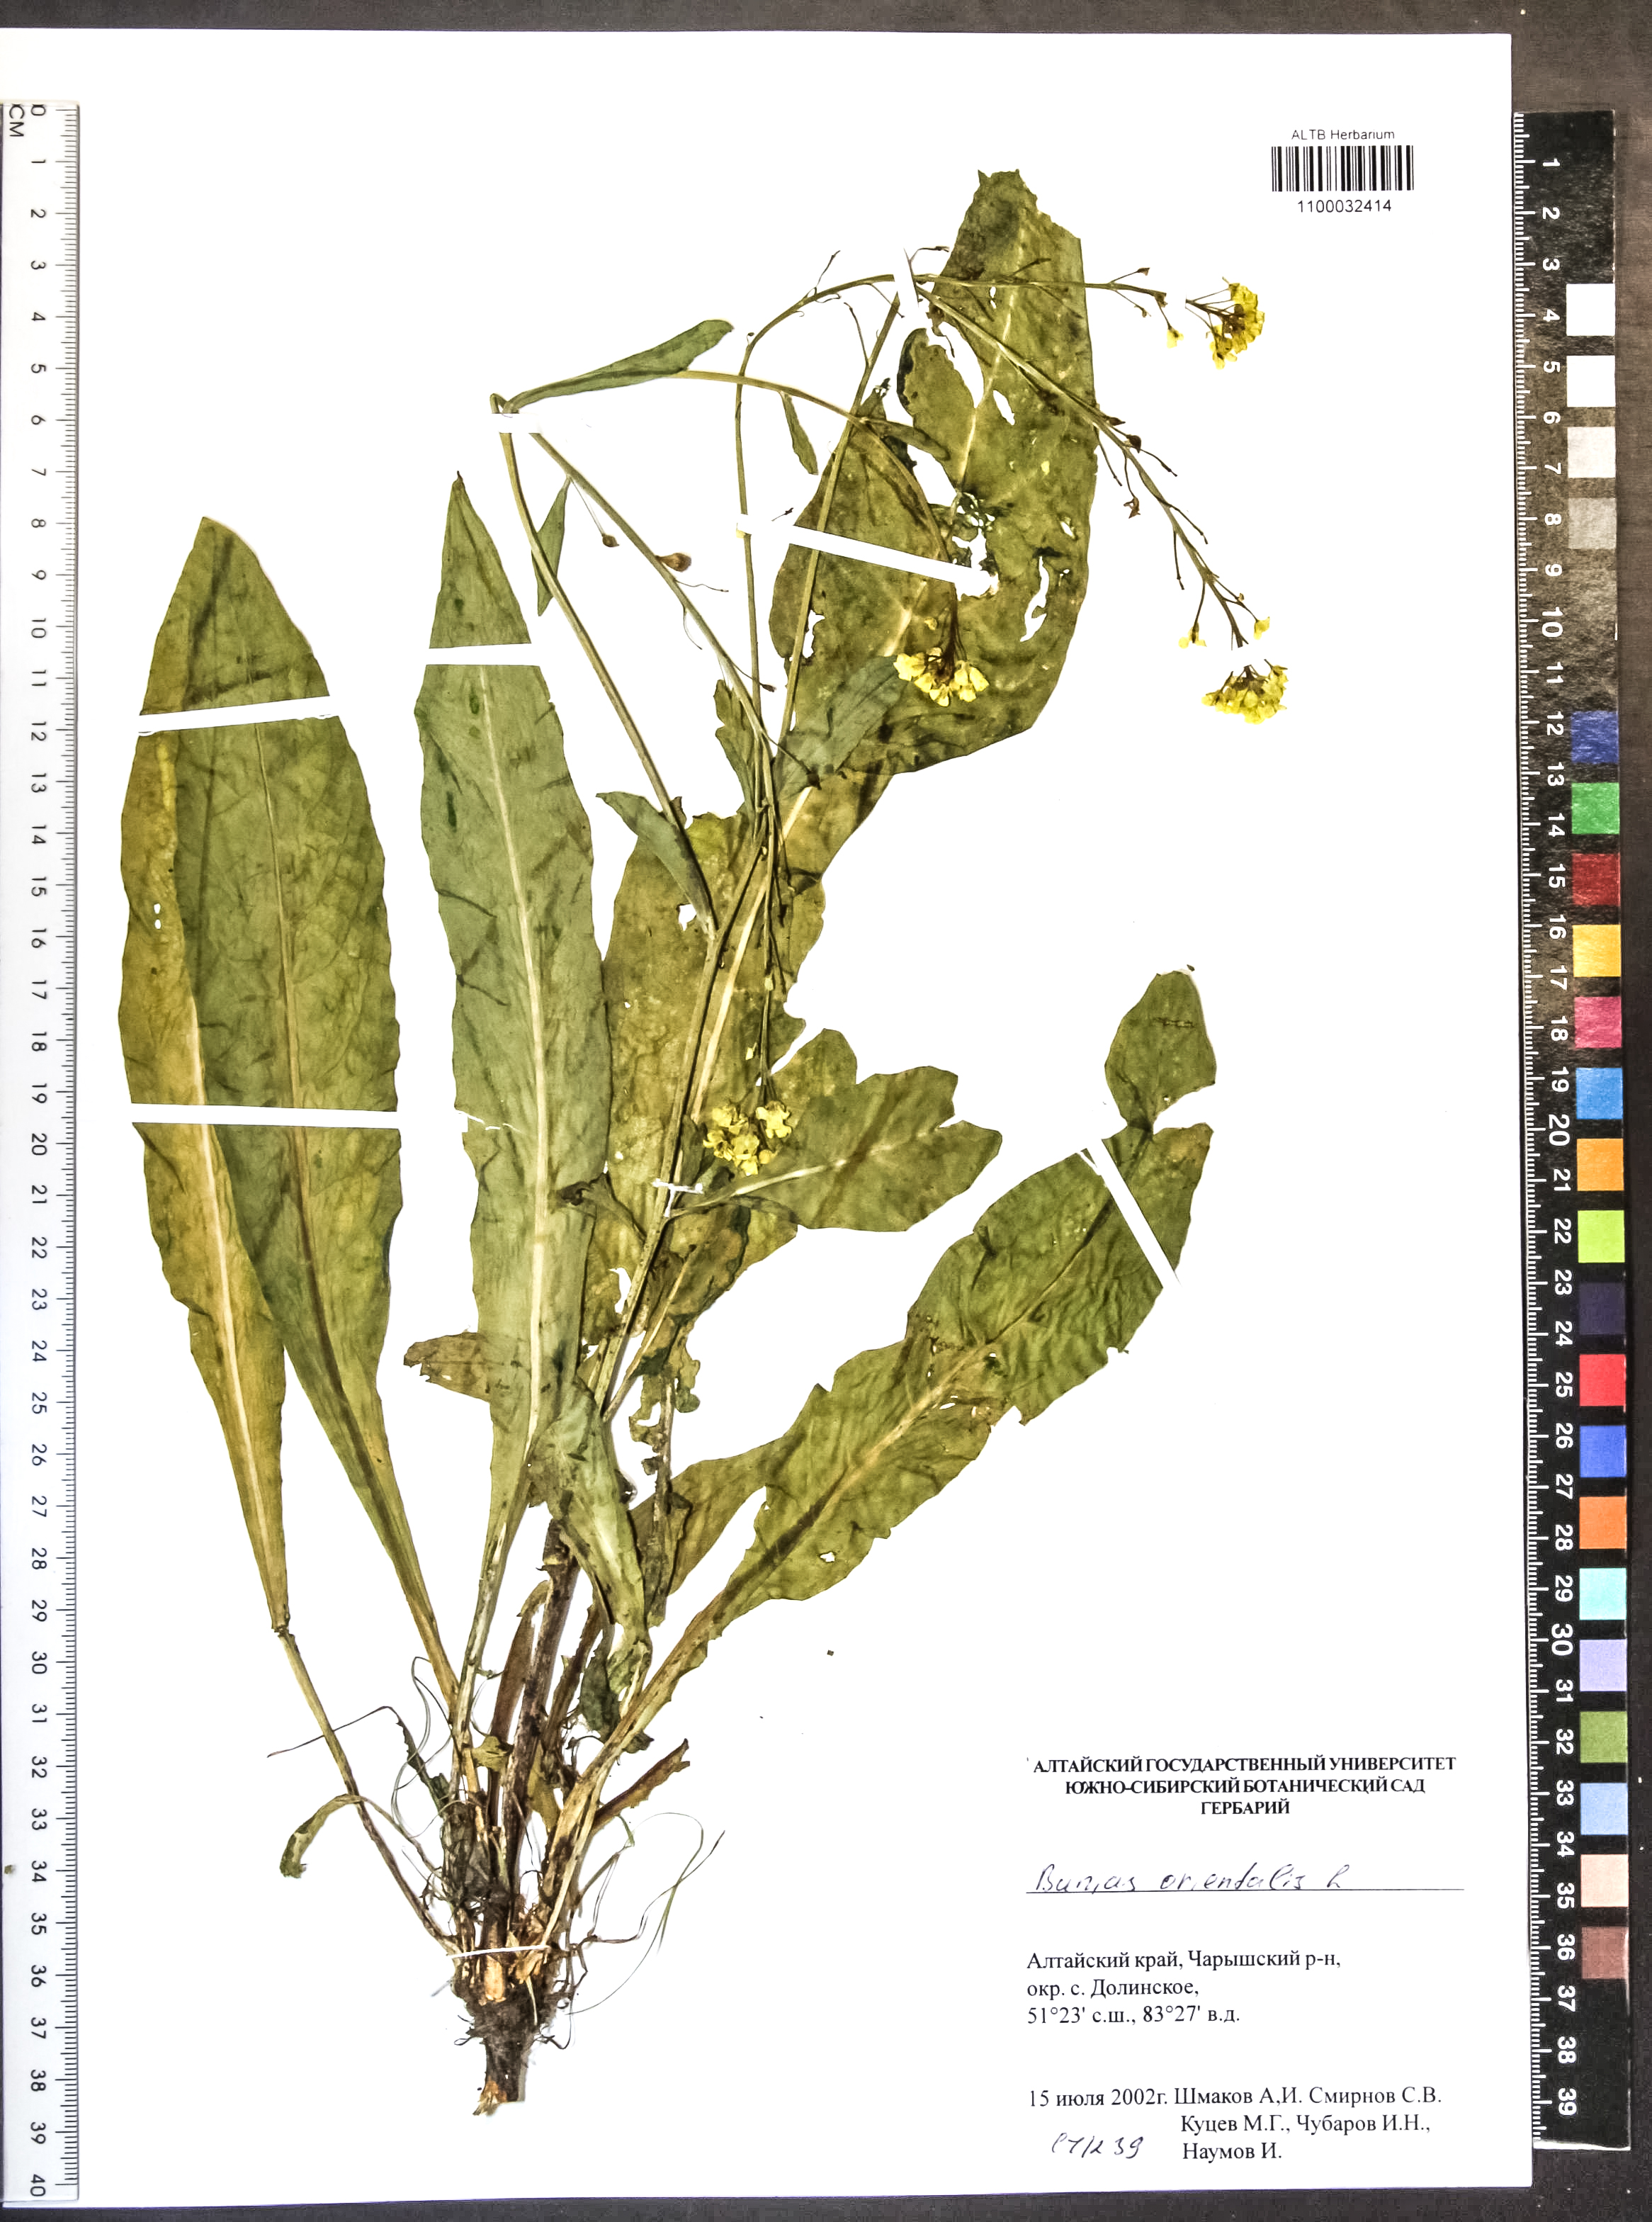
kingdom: Plantae
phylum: Tracheophyta
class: Magnoliopsida
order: Brassicales
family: Brassicaceae
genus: Bunias
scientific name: Bunias orientalis
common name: Warty-cabbage
